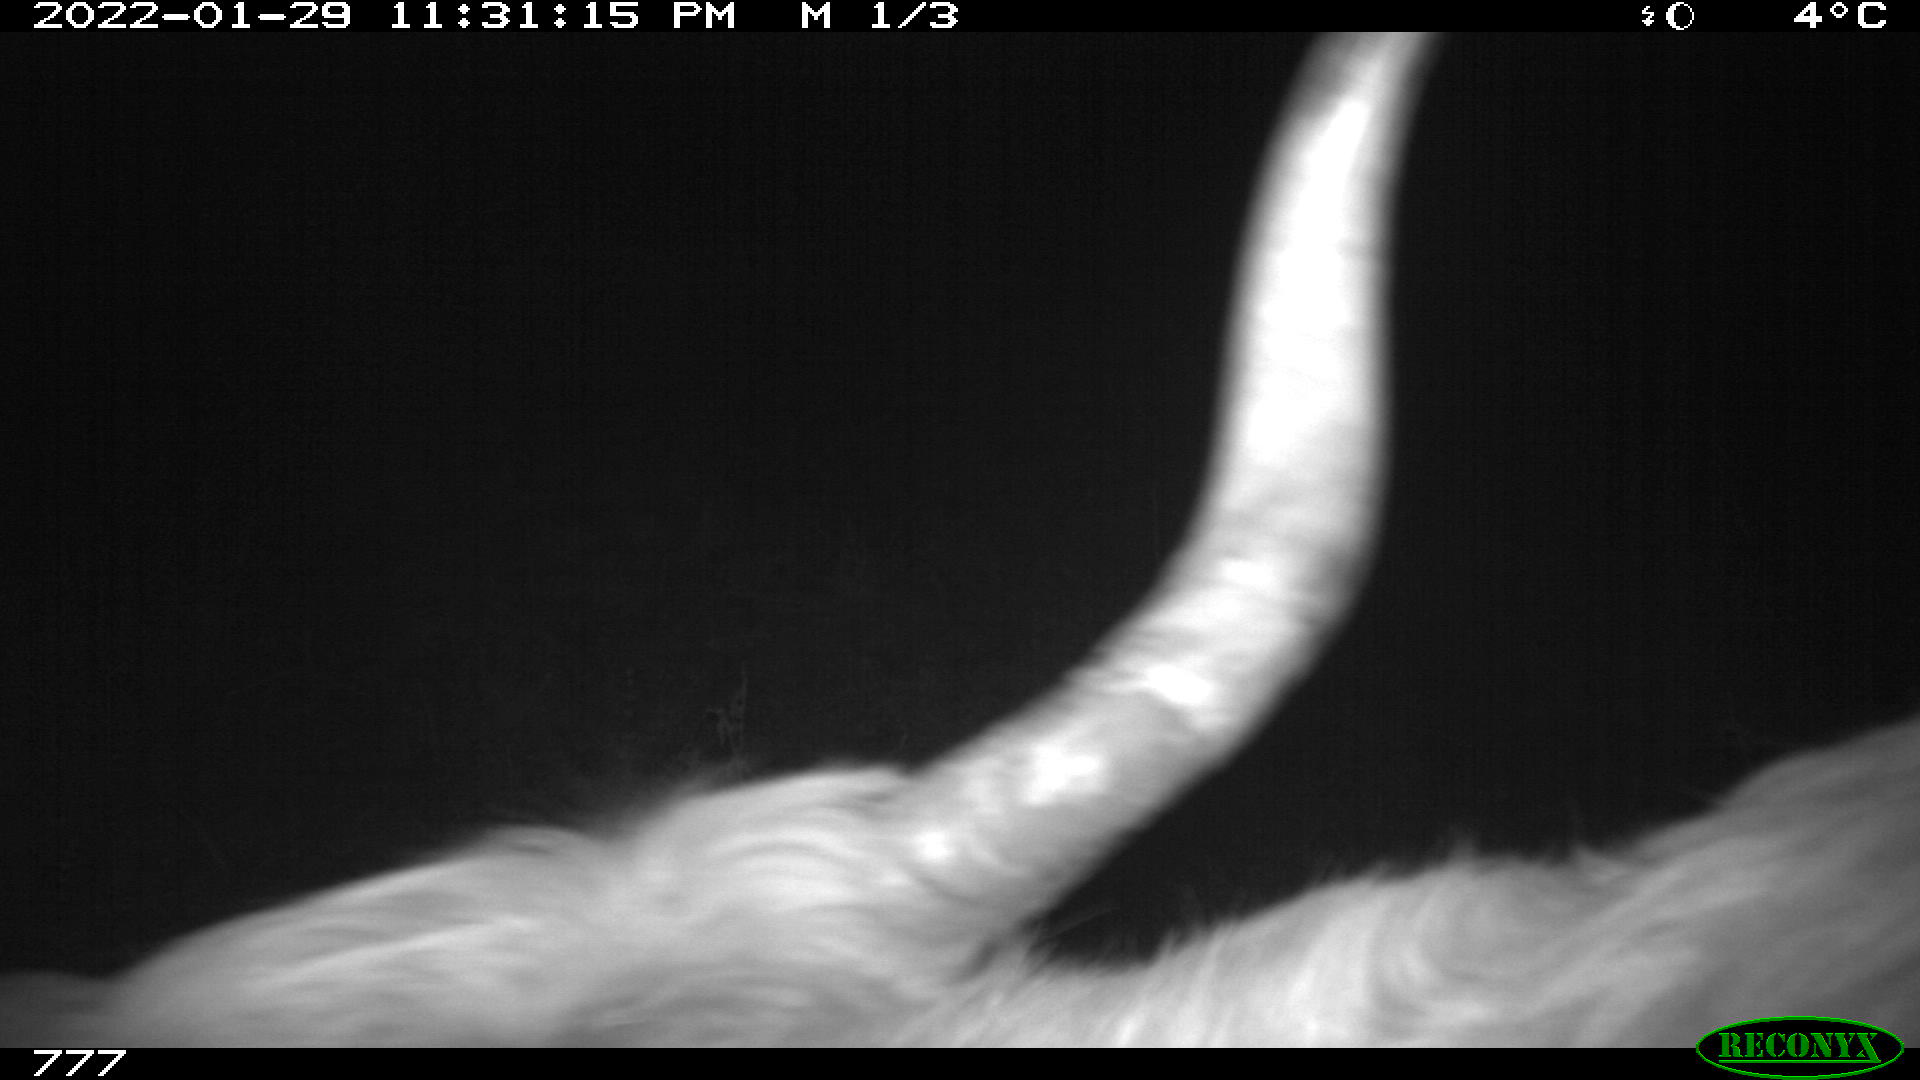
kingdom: Animalia
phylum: Chordata
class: Mammalia
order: Artiodactyla
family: Bovidae
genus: Bos
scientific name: Bos taurus
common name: Domesticated cattle
